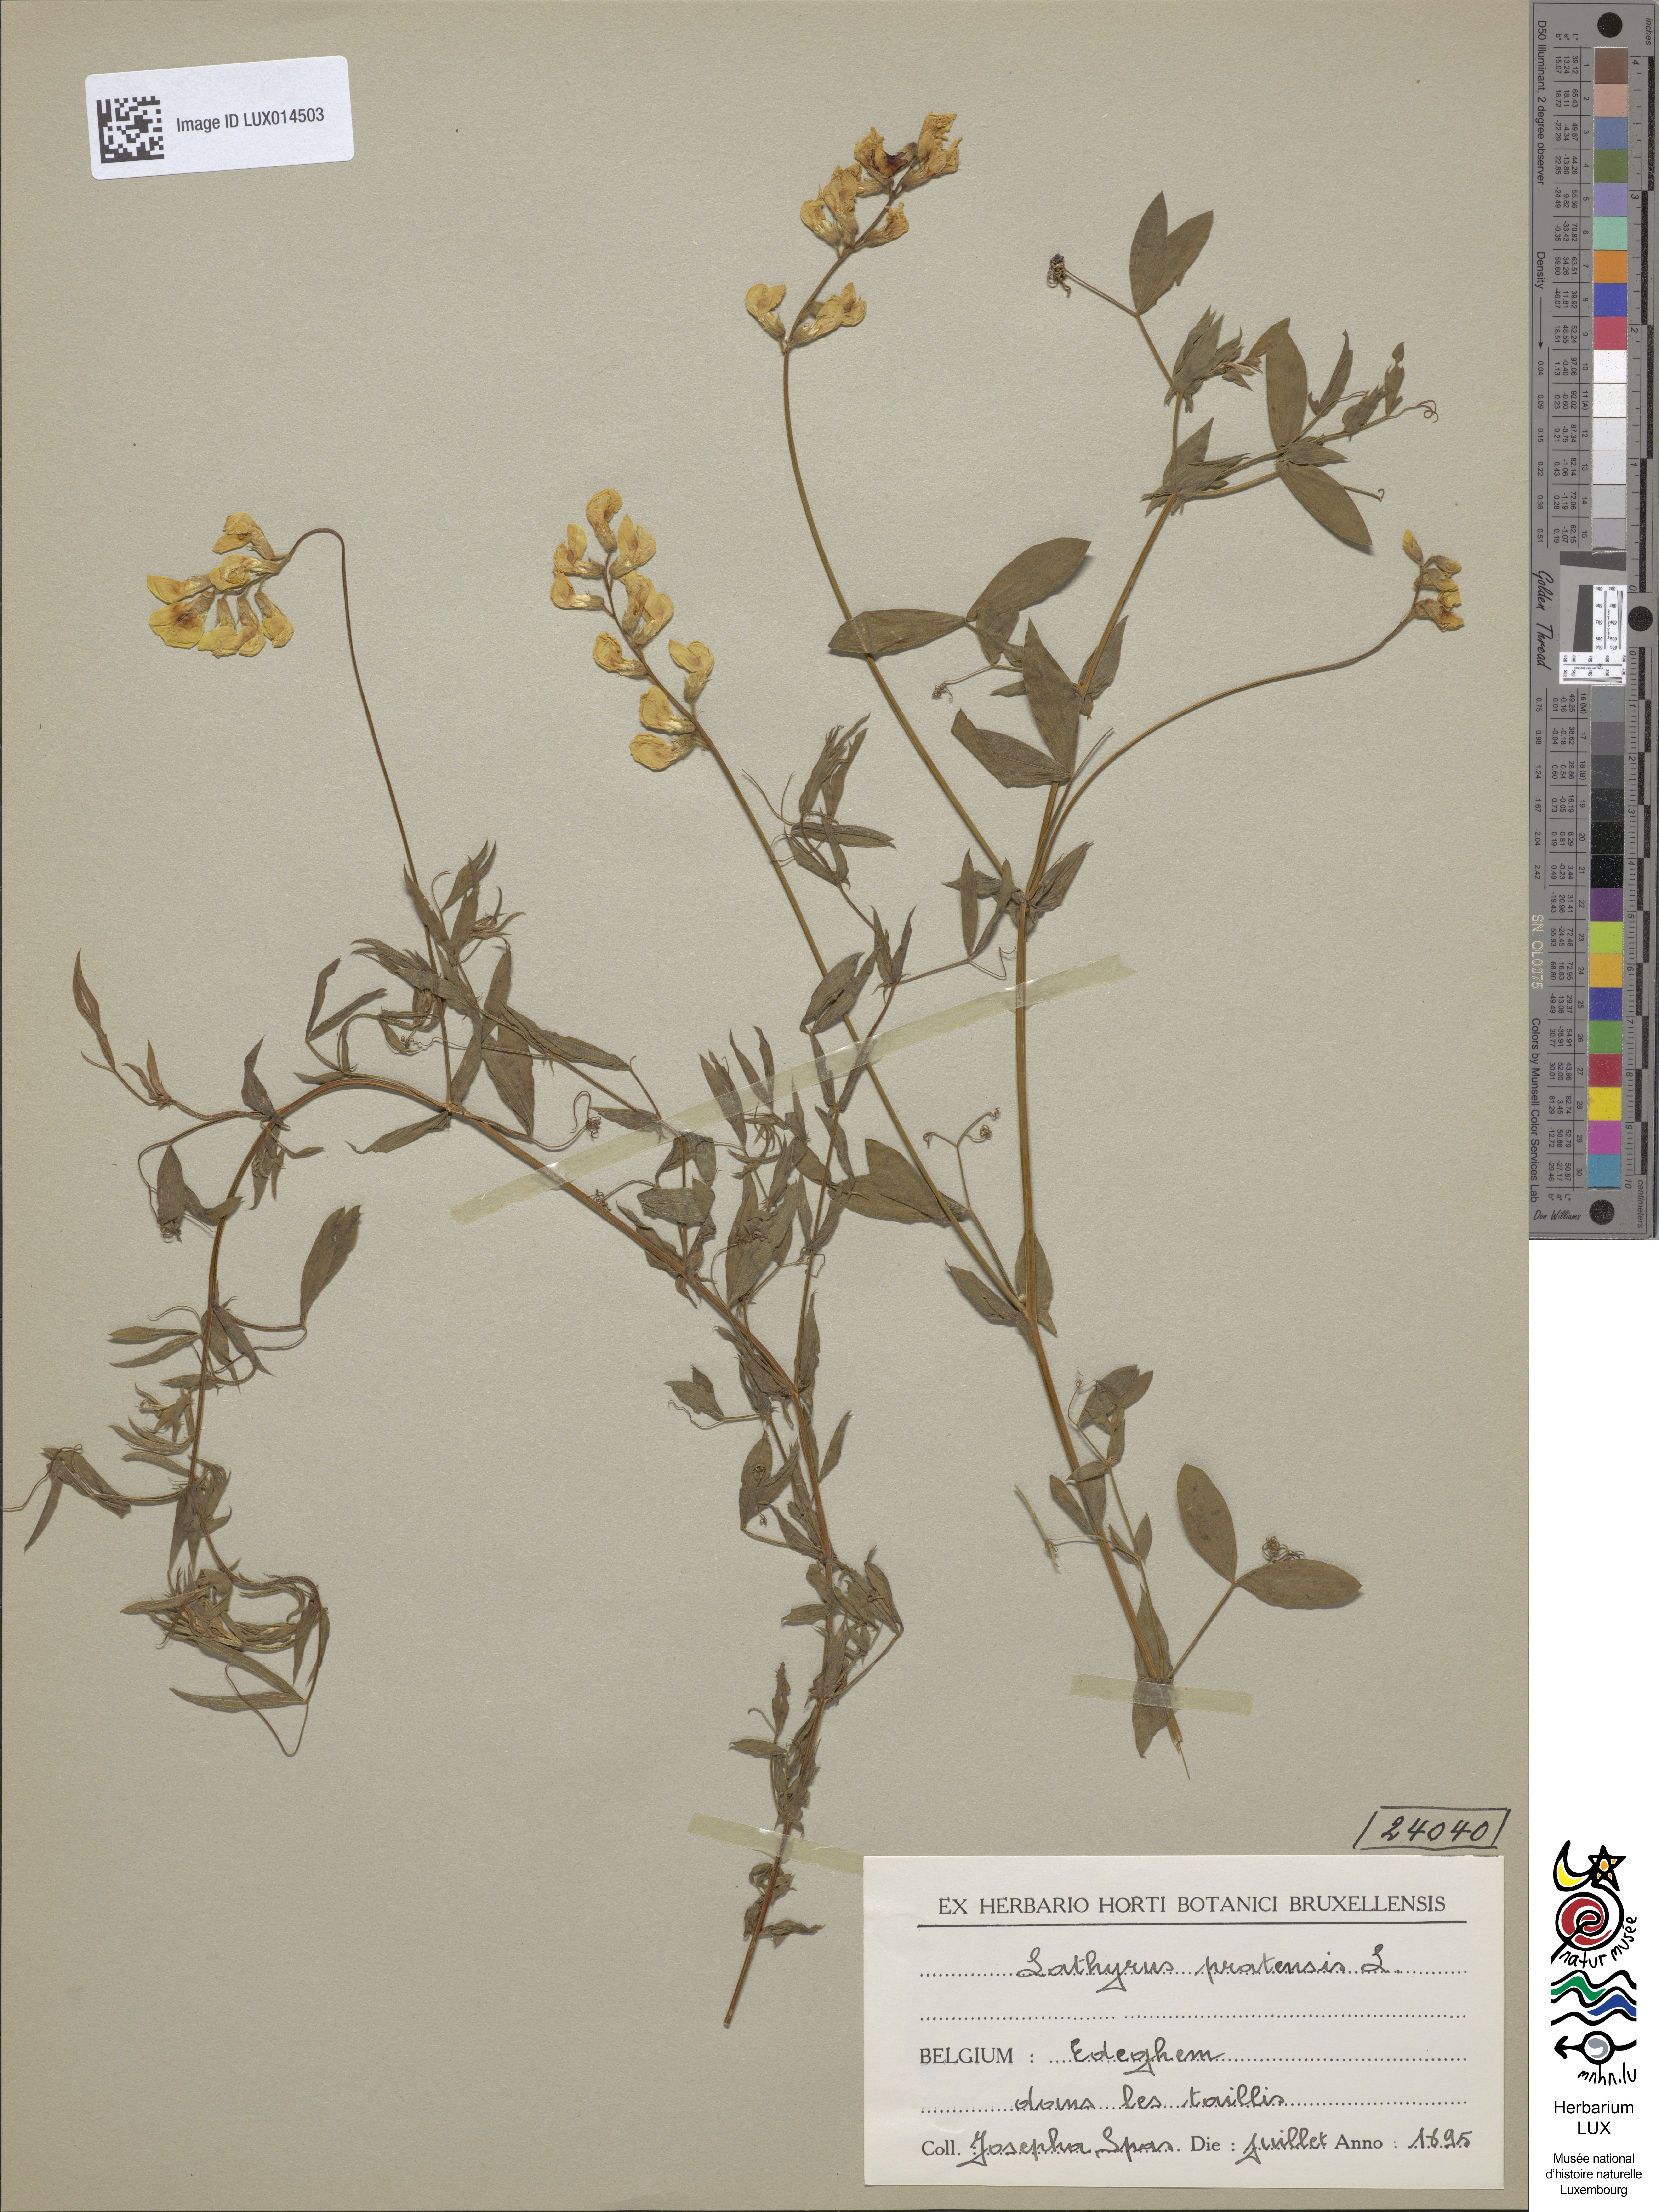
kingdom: Plantae
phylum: Tracheophyta
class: Magnoliopsida
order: Fabales
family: Fabaceae
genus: Lathyrus
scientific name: Lathyrus pratensis
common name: Meadow vetchling
